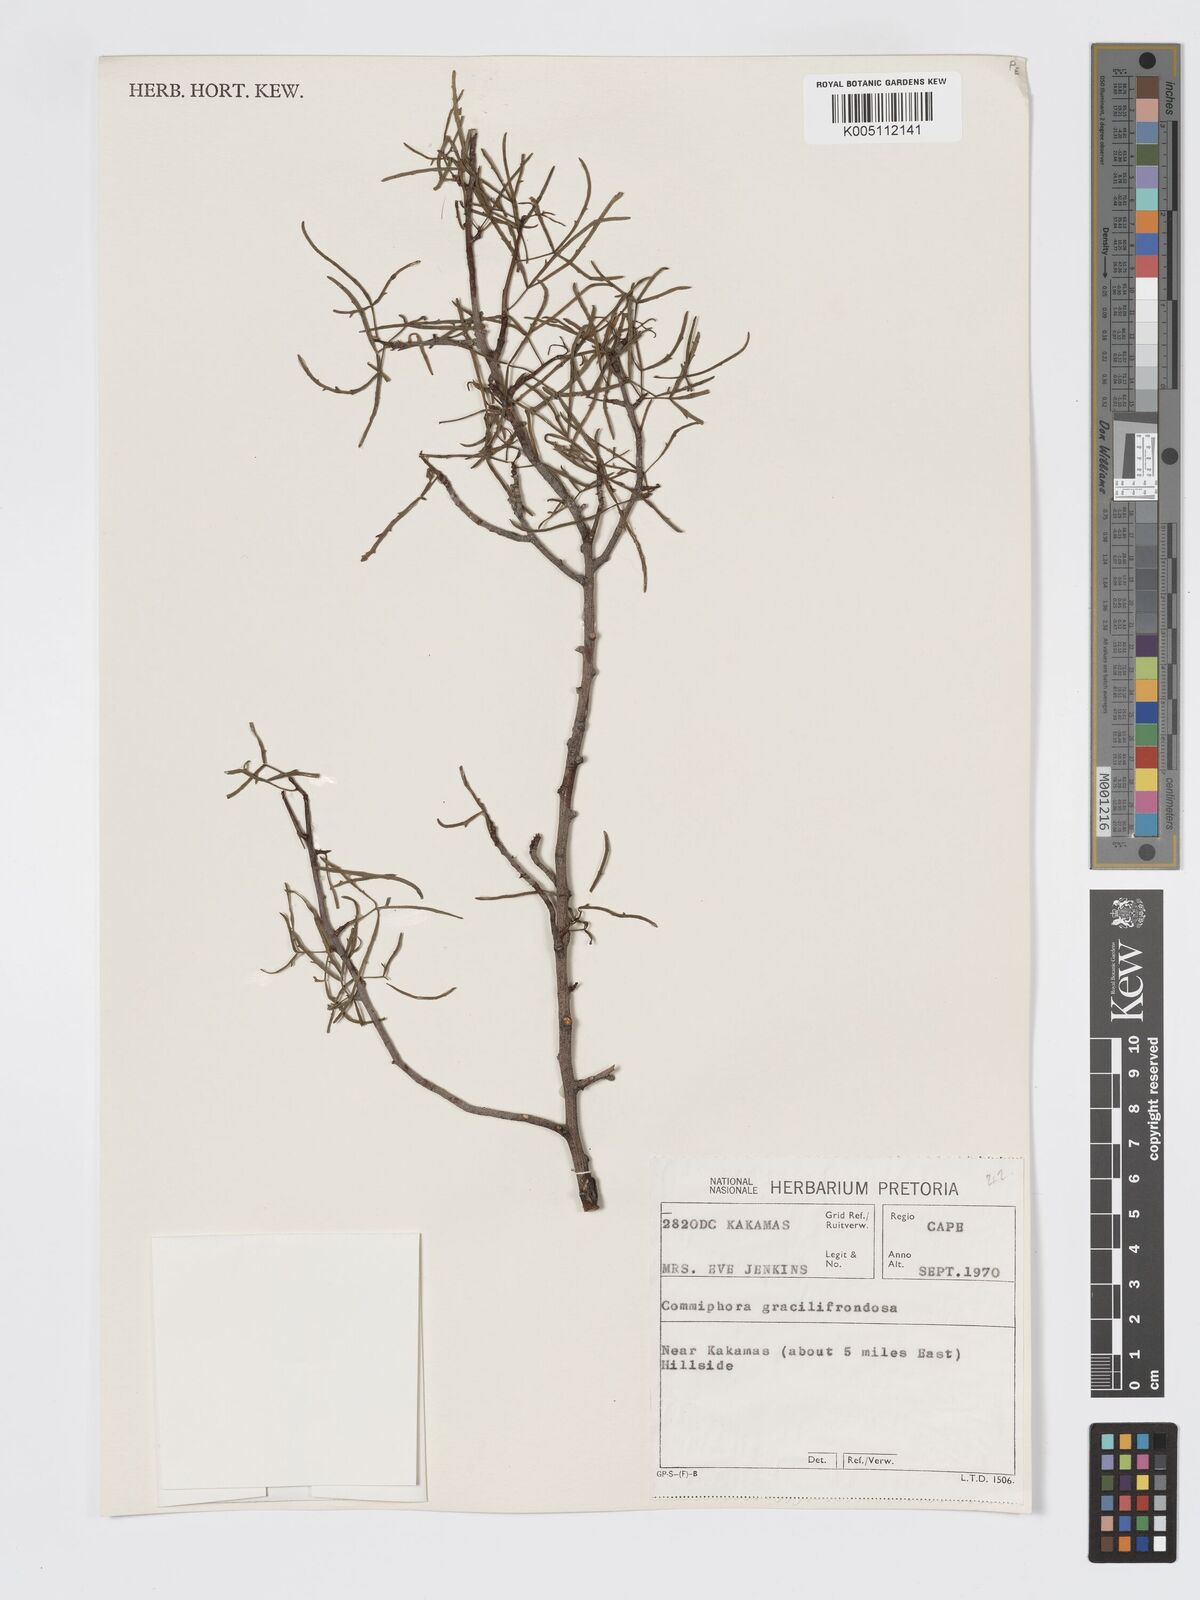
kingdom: Plantae
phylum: Tracheophyta
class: Magnoliopsida
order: Sapindales
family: Burseraceae
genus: Commiphora
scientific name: Commiphora gracilifrondosa
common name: Karee-leaved commiphora
